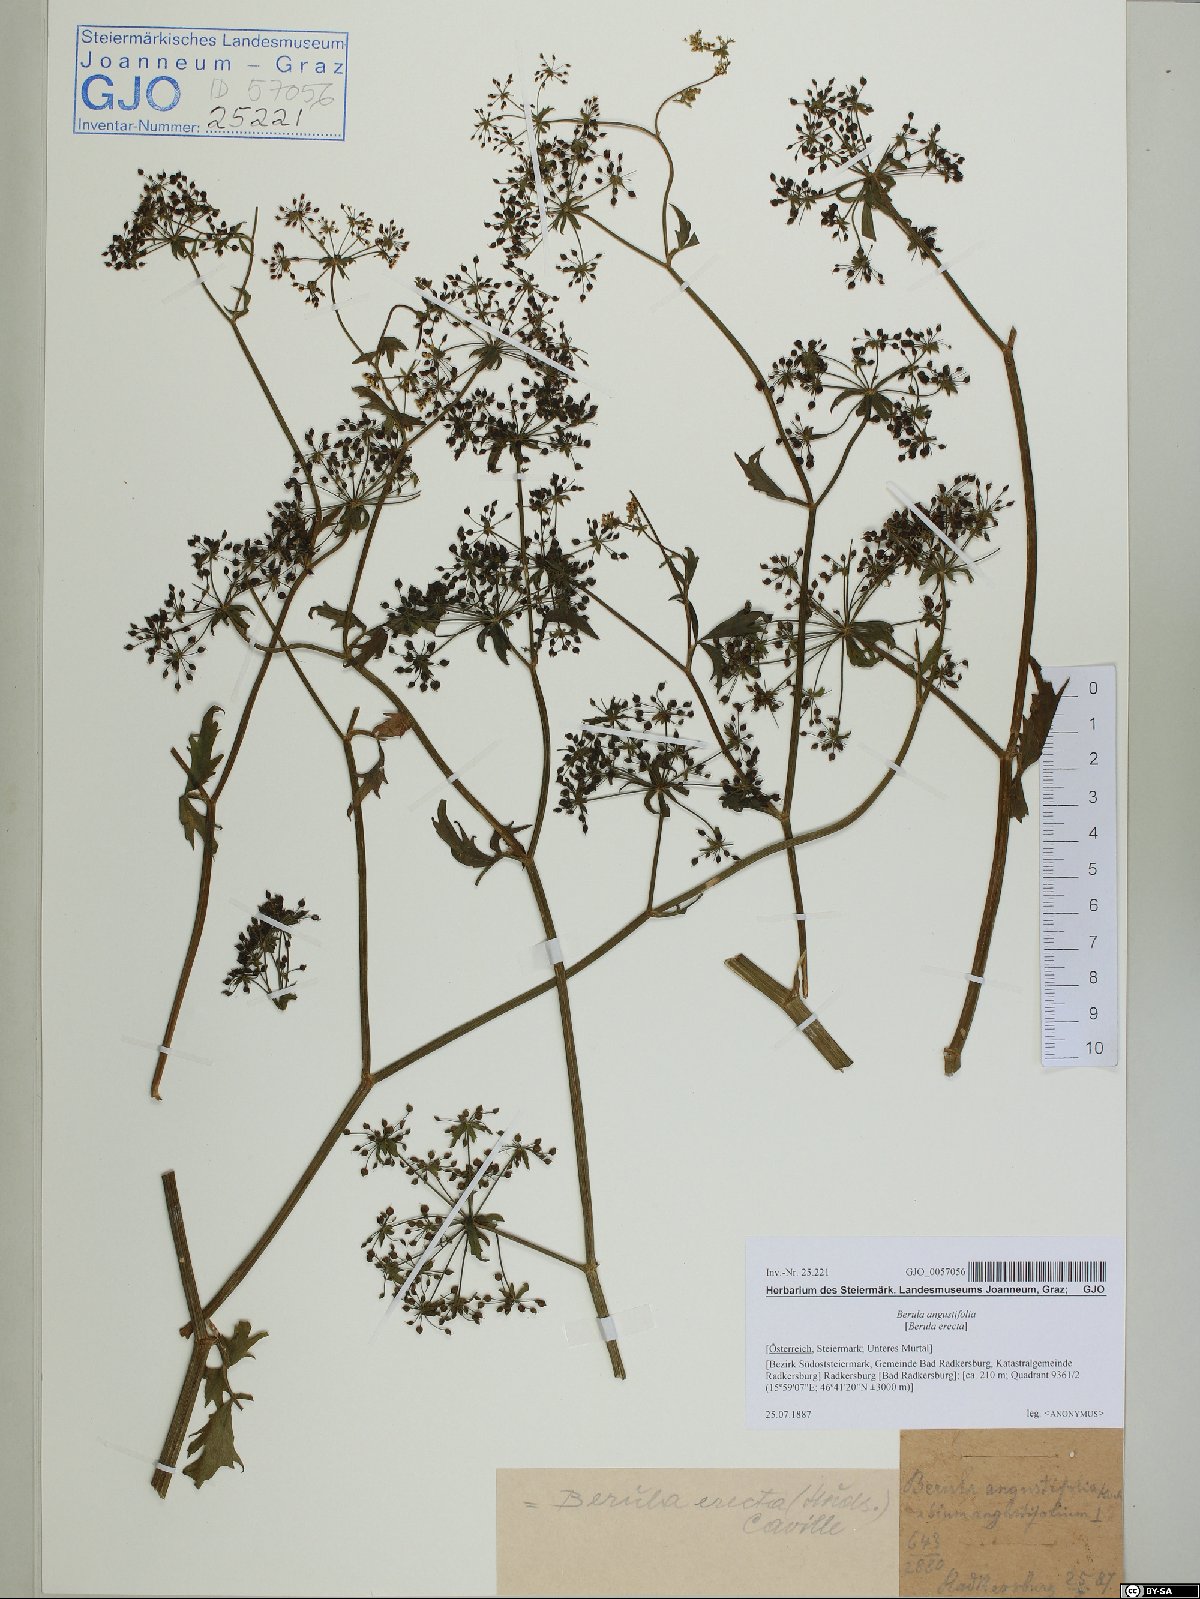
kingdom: Plantae
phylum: Tracheophyta
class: Magnoliopsida
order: Apiales
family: Apiaceae
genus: Berula
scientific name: Berula erecta
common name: Lesser water-parsnip
